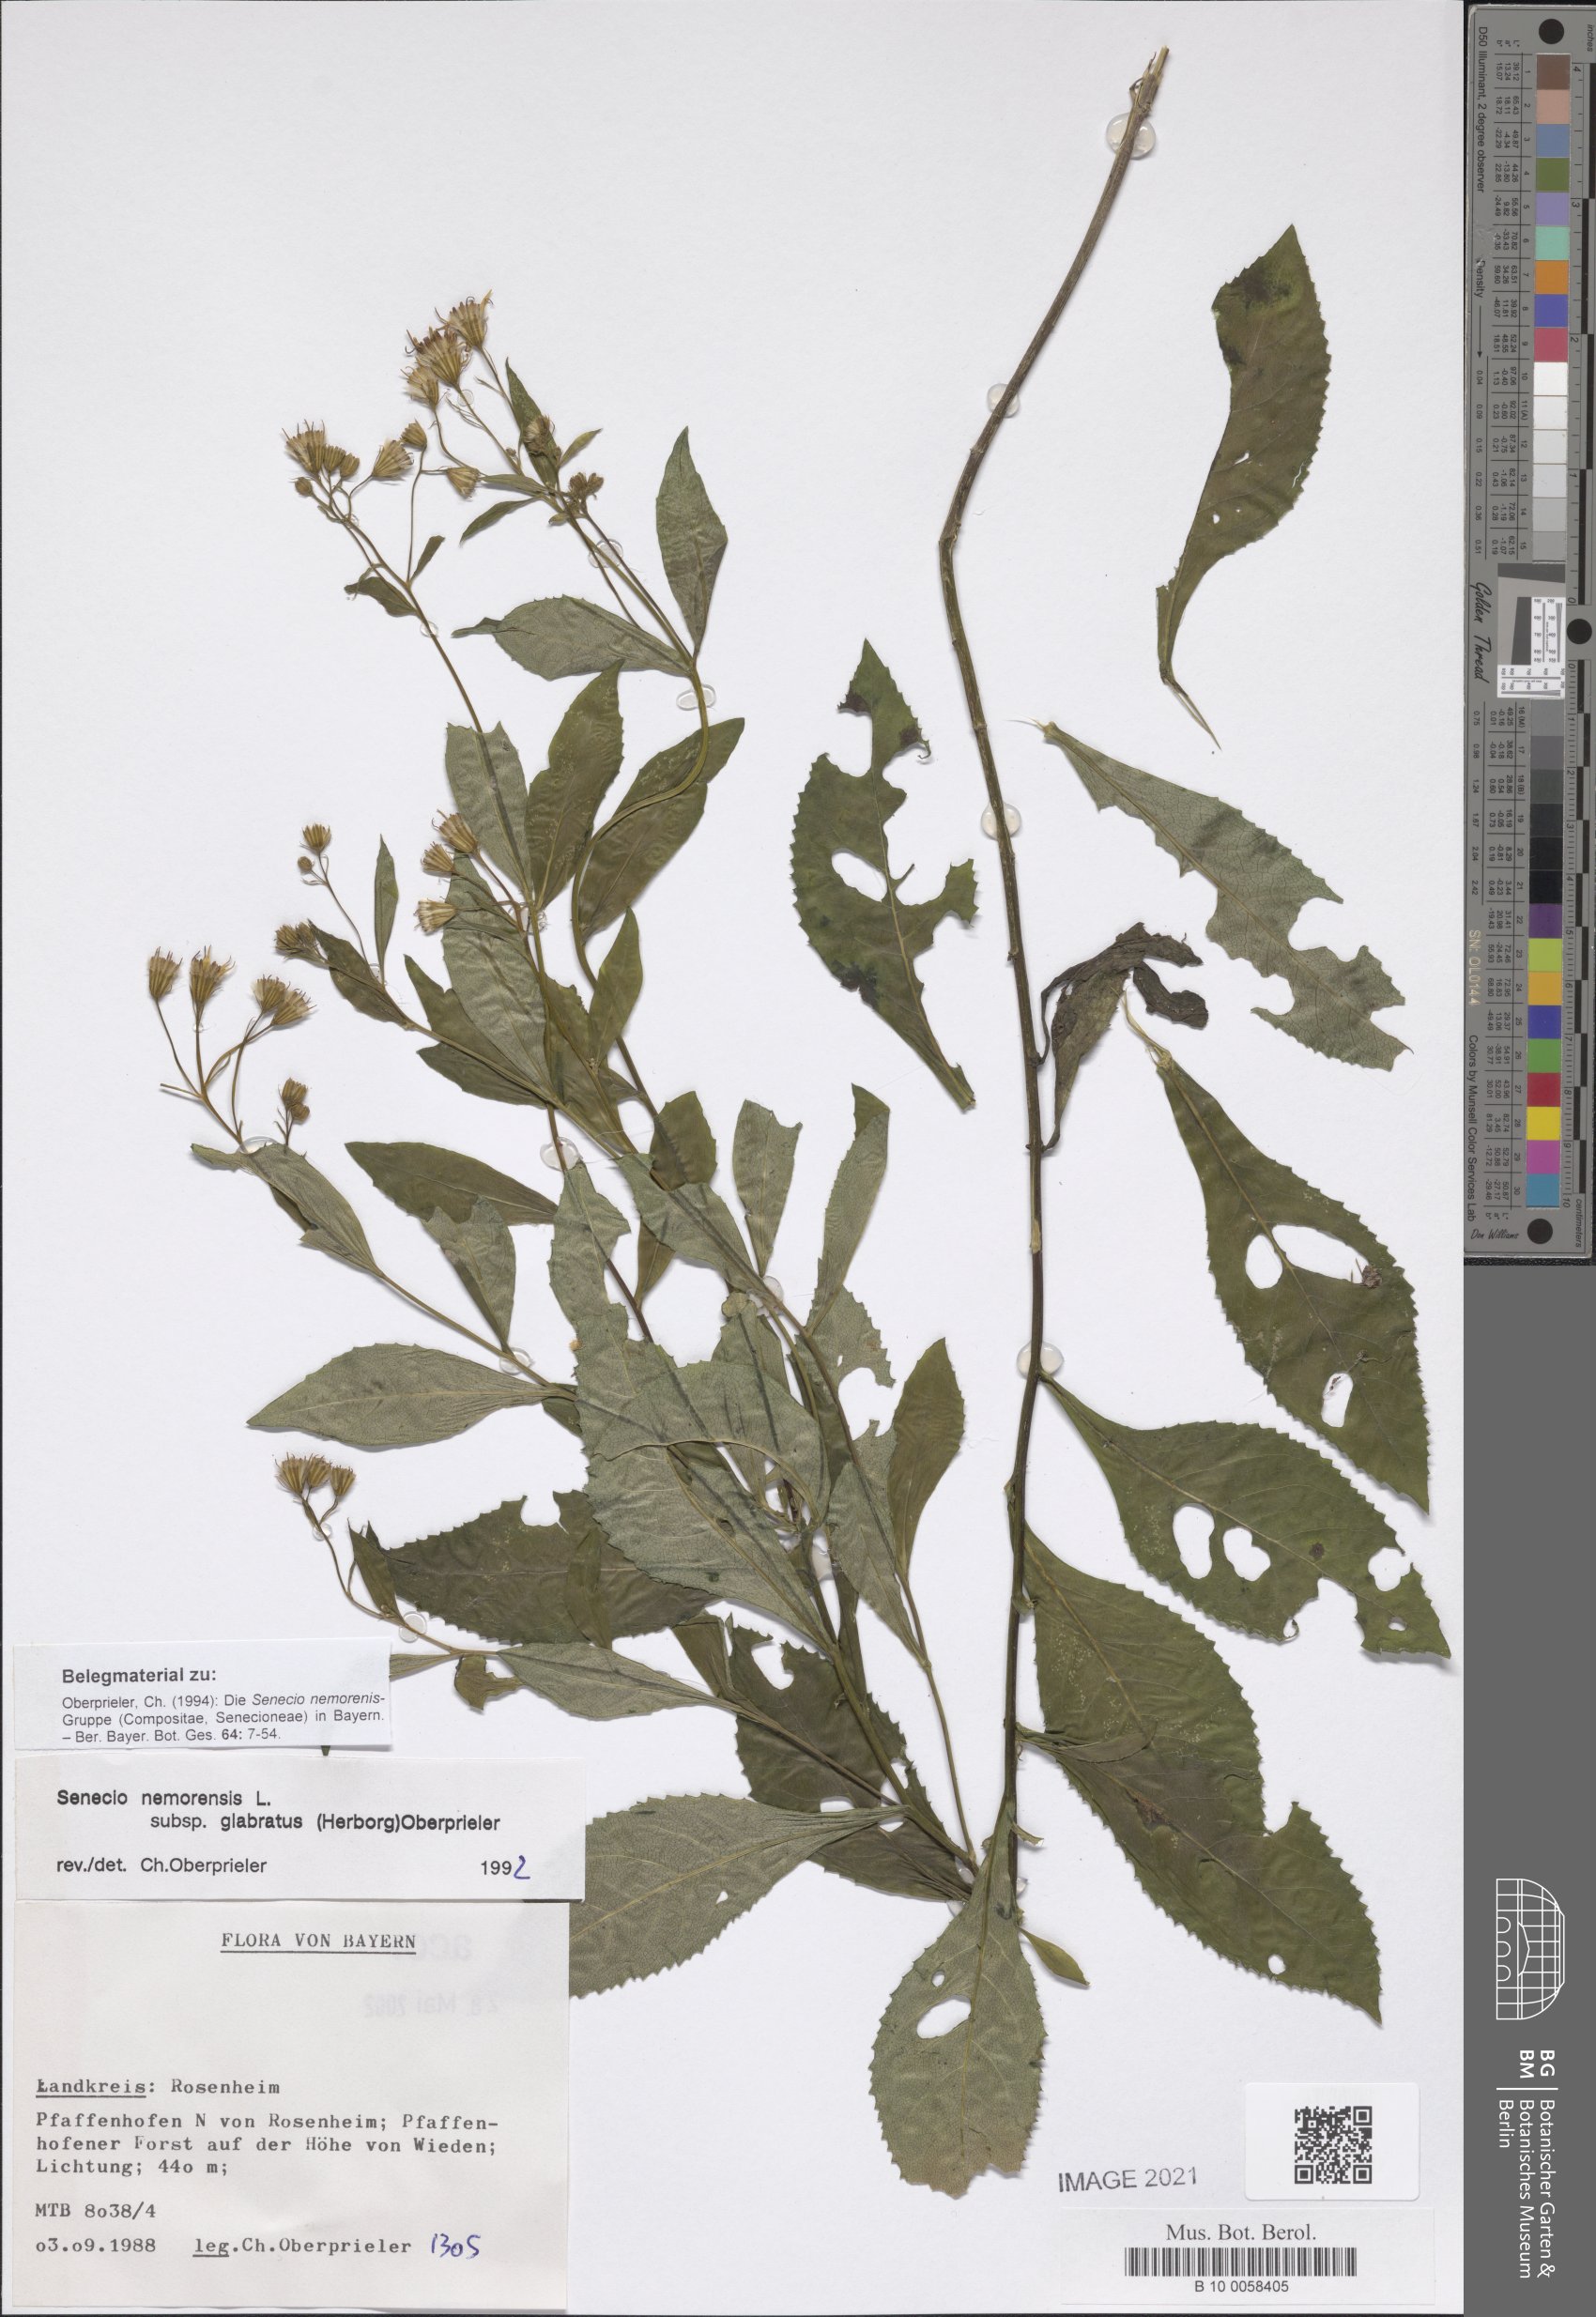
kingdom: Plantae
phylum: Tracheophyta
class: Magnoliopsida
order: Asterales
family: Asteraceae
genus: Senecio
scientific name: Senecio germanicus
